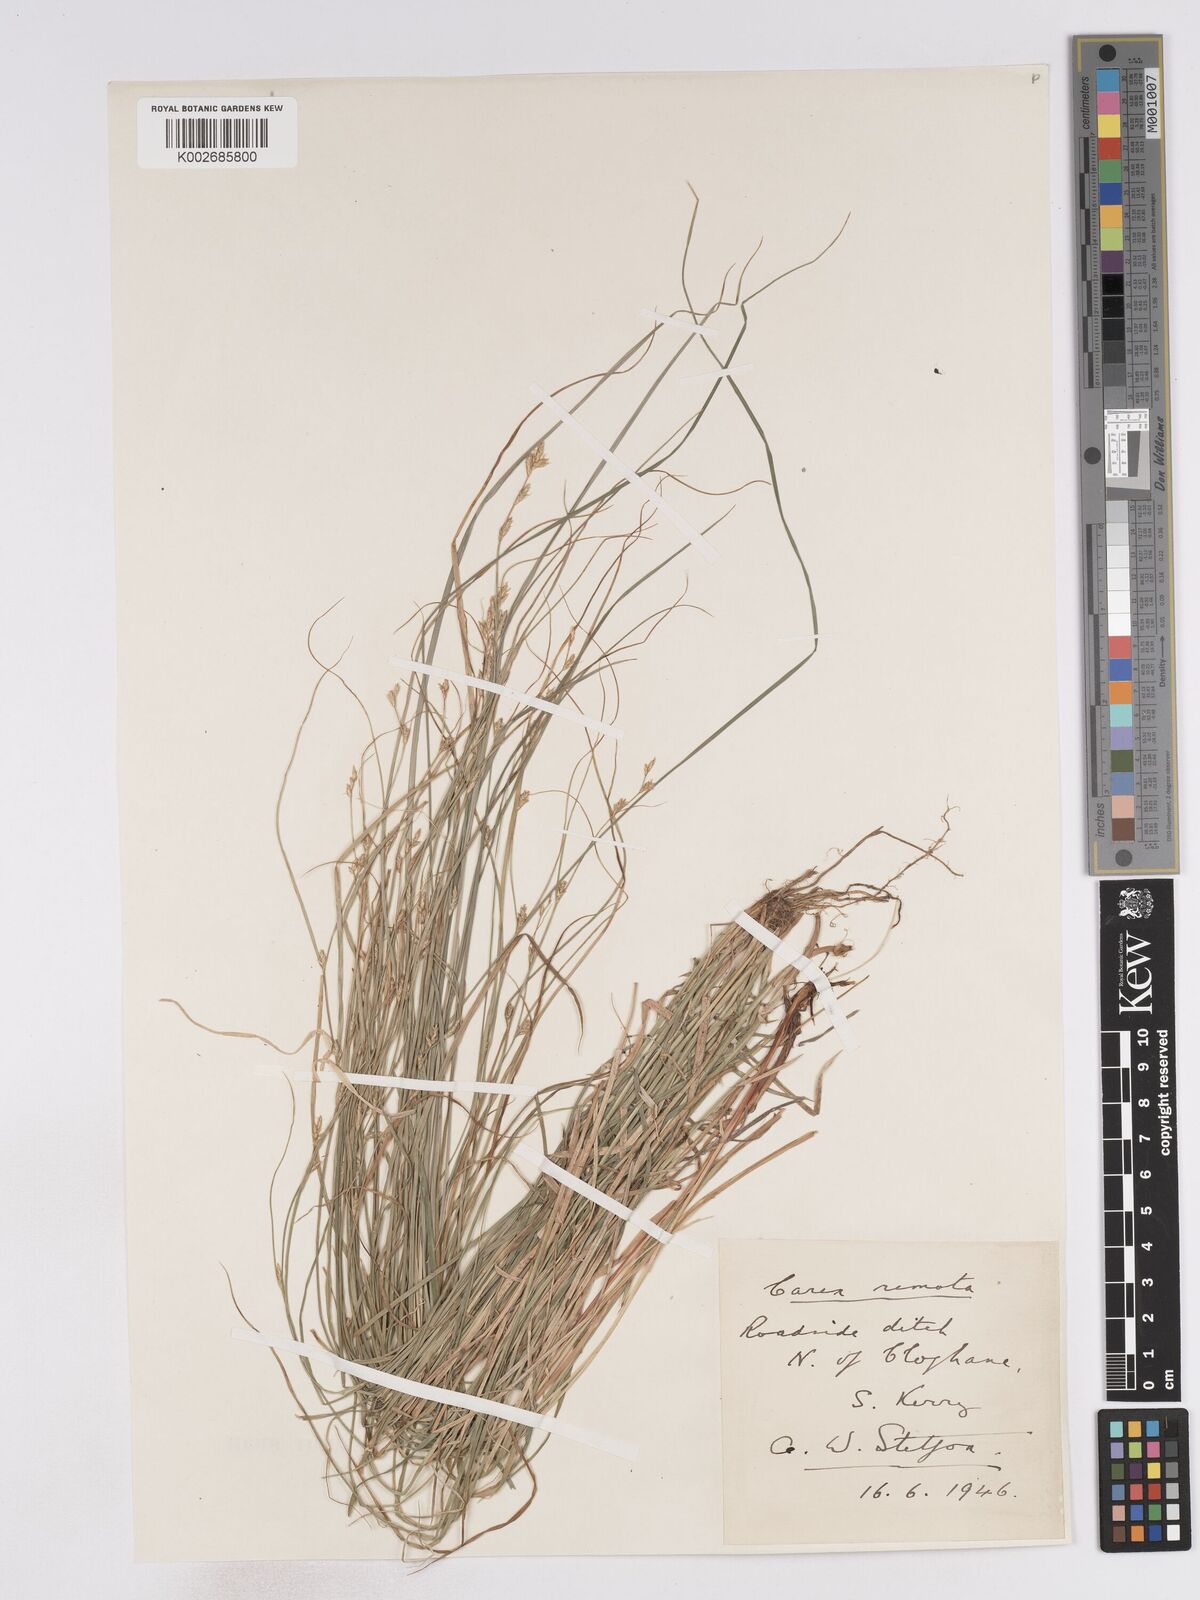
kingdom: Plantae
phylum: Tracheophyta
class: Liliopsida
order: Poales
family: Cyperaceae
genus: Carex
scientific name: Carex remota
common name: Remote sedge
